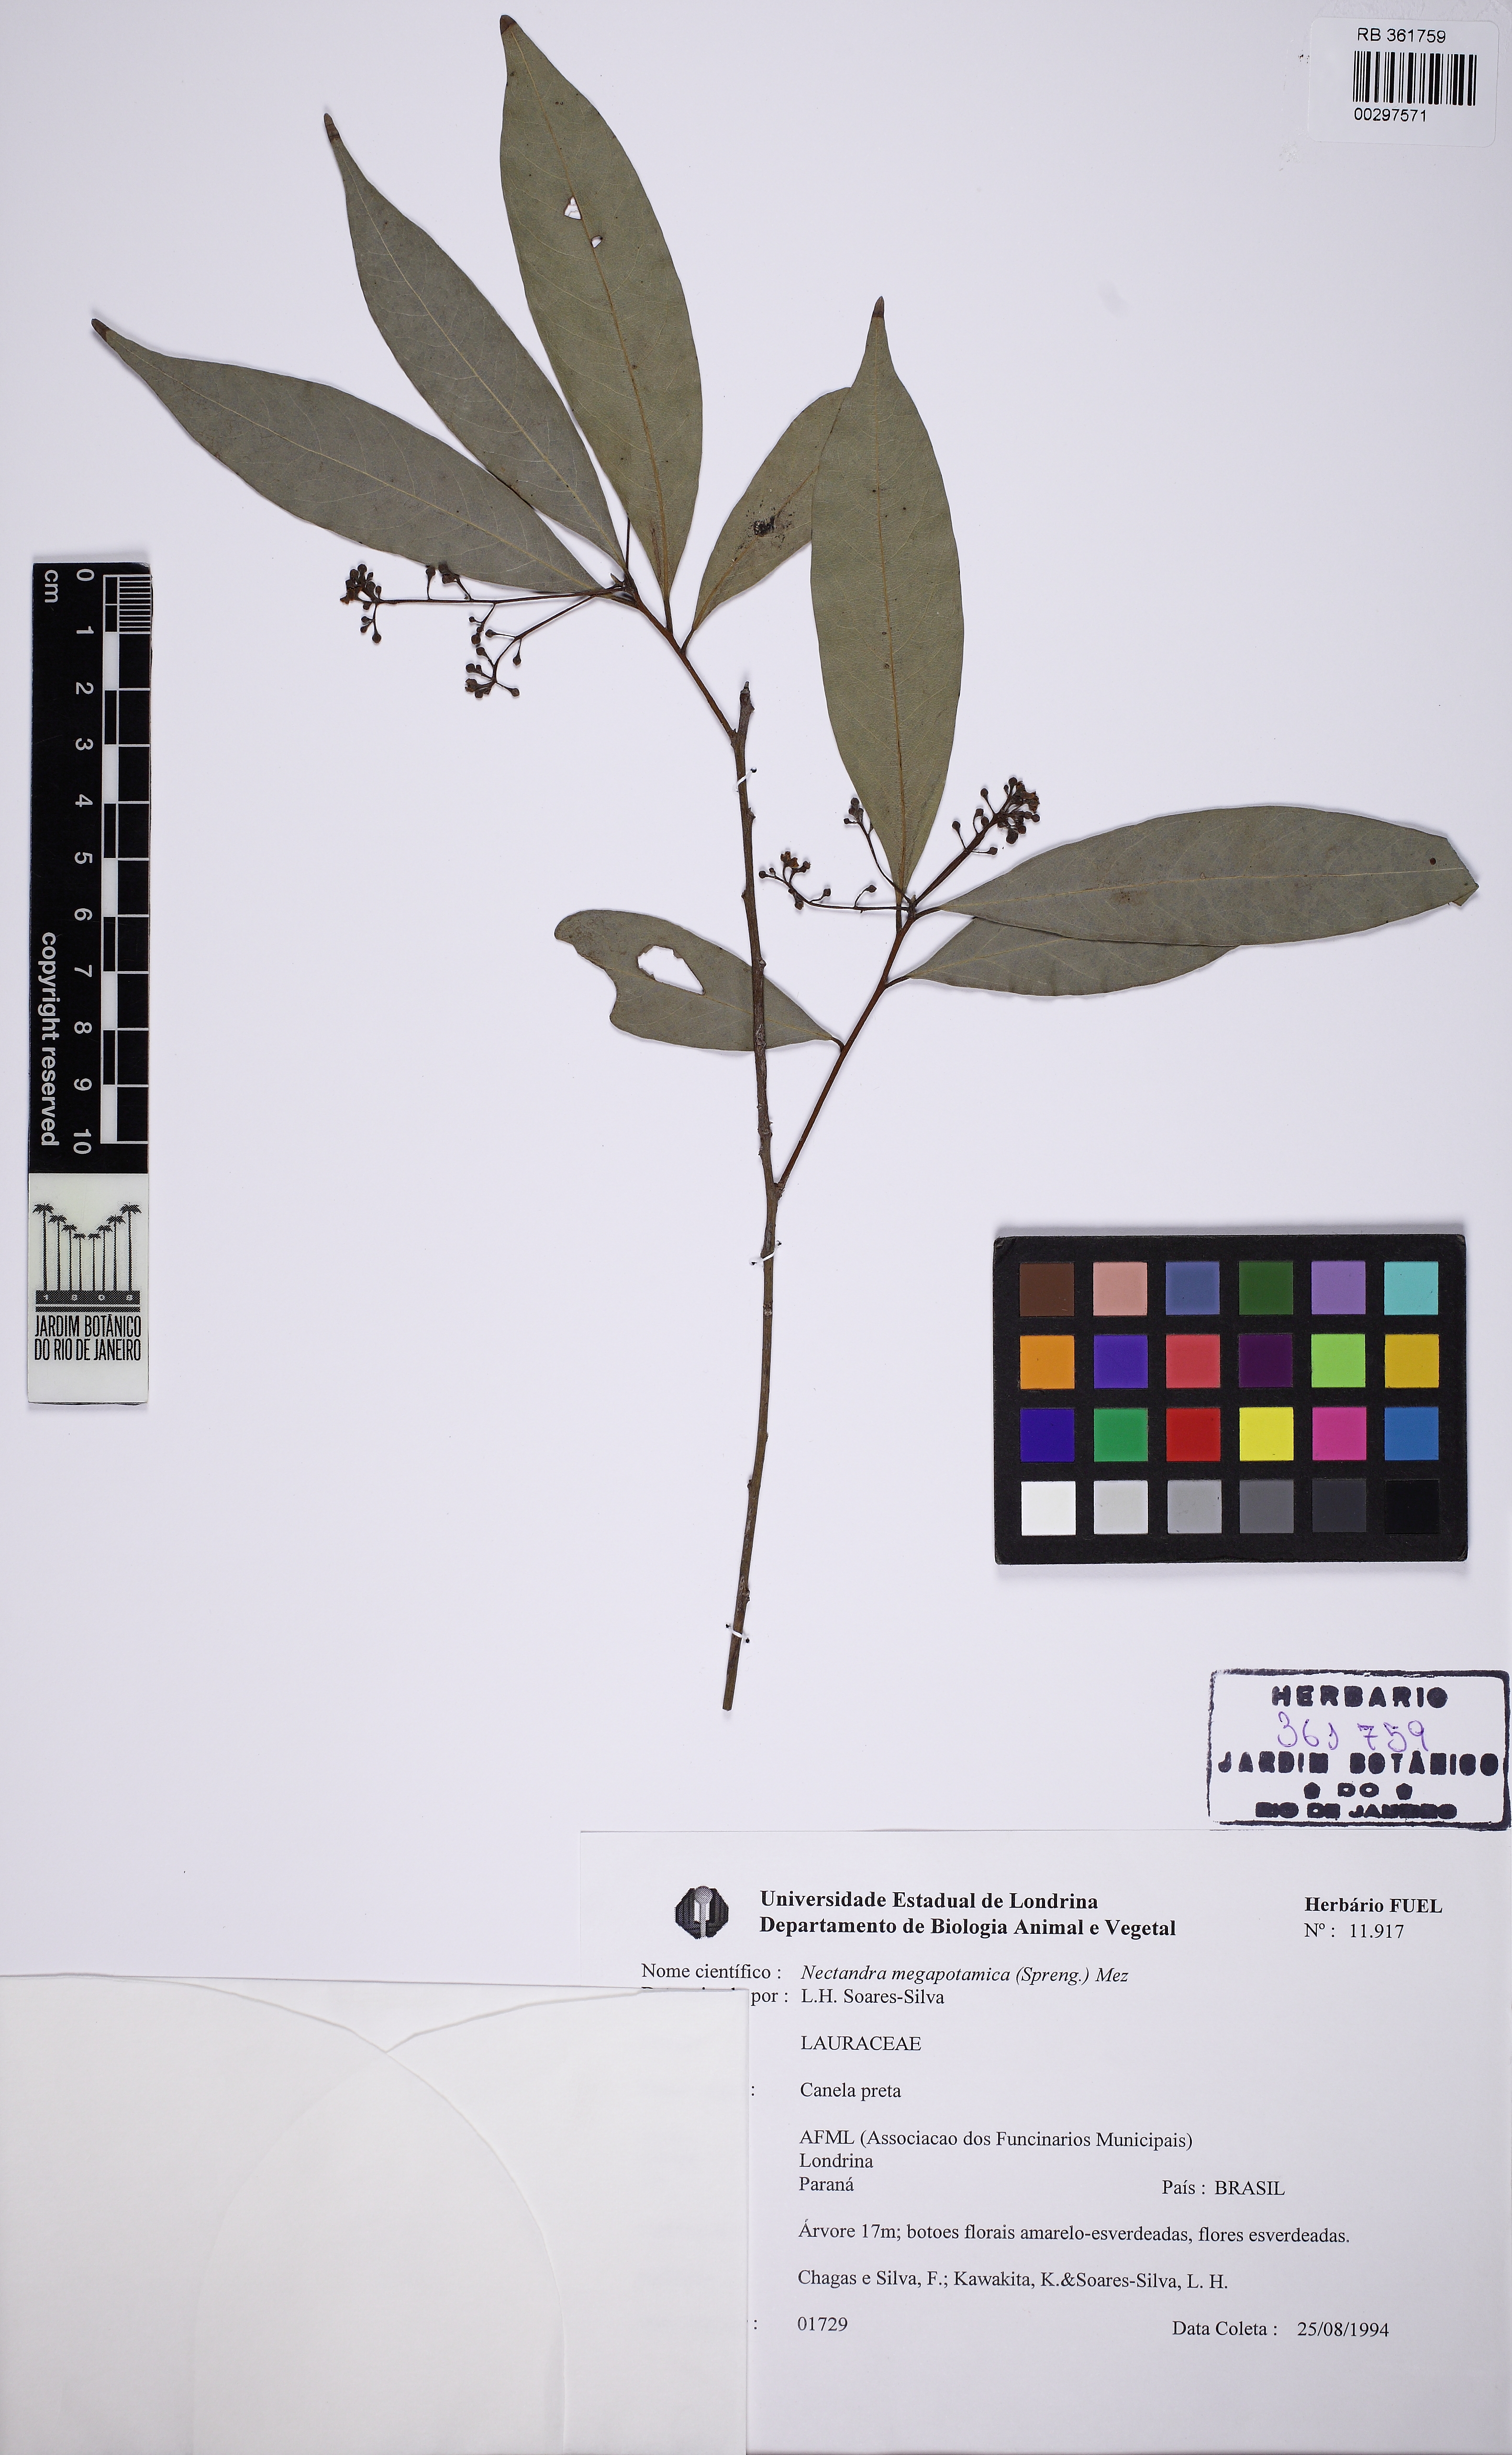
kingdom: Plantae
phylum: Tracheophyta
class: Magnoliopsida
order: Laurales
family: Lauraceae
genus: Nectandra
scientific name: Nectandra megapotamica
